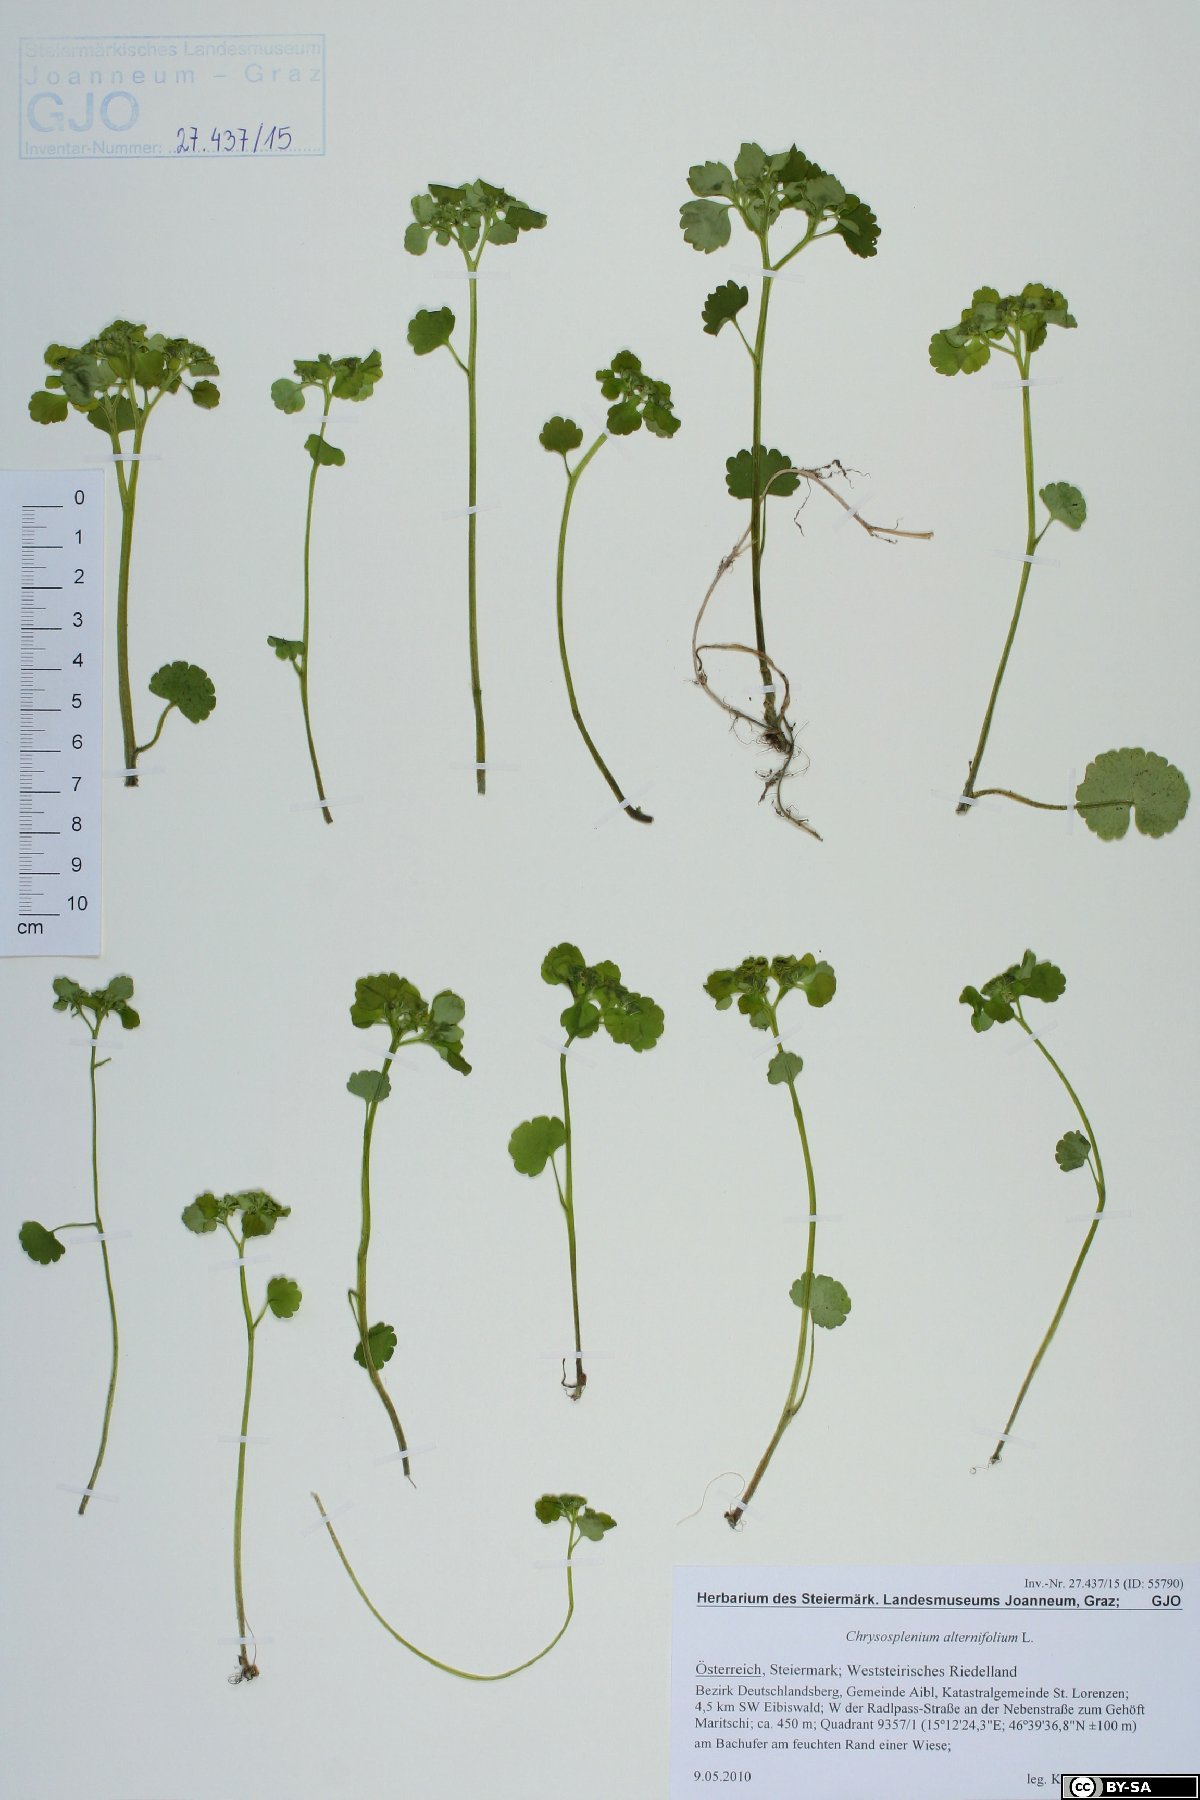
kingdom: Plantae
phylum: Tracheophyta
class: Magnoliopsida
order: Saxifragales
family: Saxifragaceae
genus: Chrysosplenium
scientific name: Chrysosplenium alternifolium
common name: Alternate-leaved golden-saxifrage
